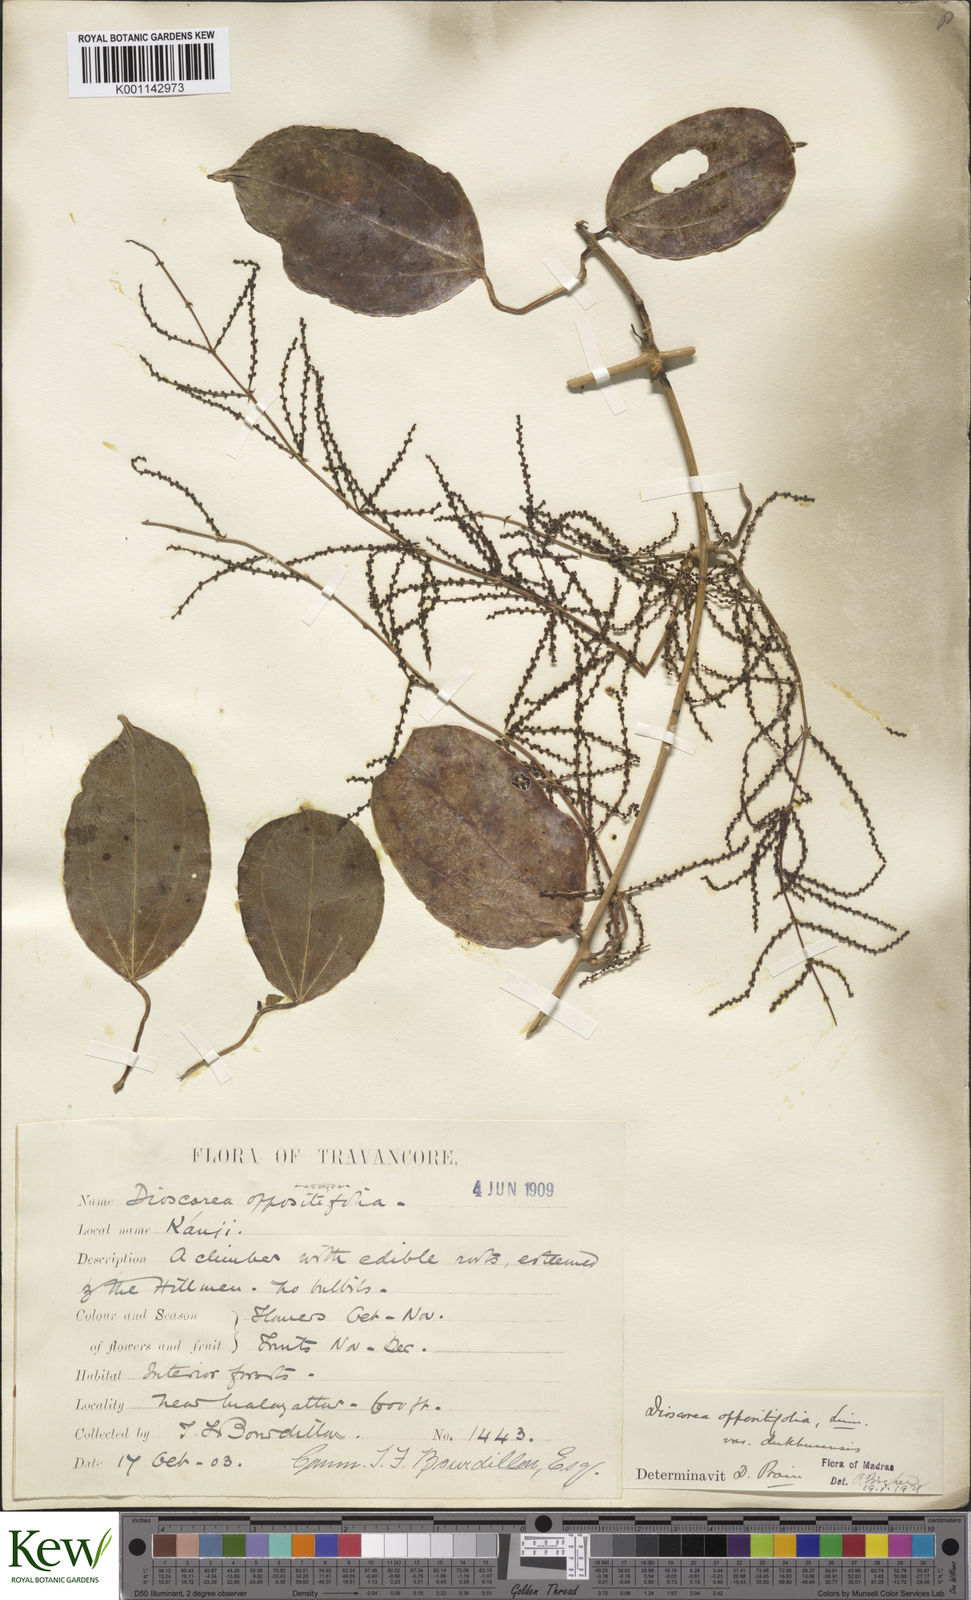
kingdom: Plantae
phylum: Tracheophyta
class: Liliopsida
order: Dioscoreales
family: Dioscoreaceae
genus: Dioscorea
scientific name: Dioscorea oppositifolia
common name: Chinese yam
